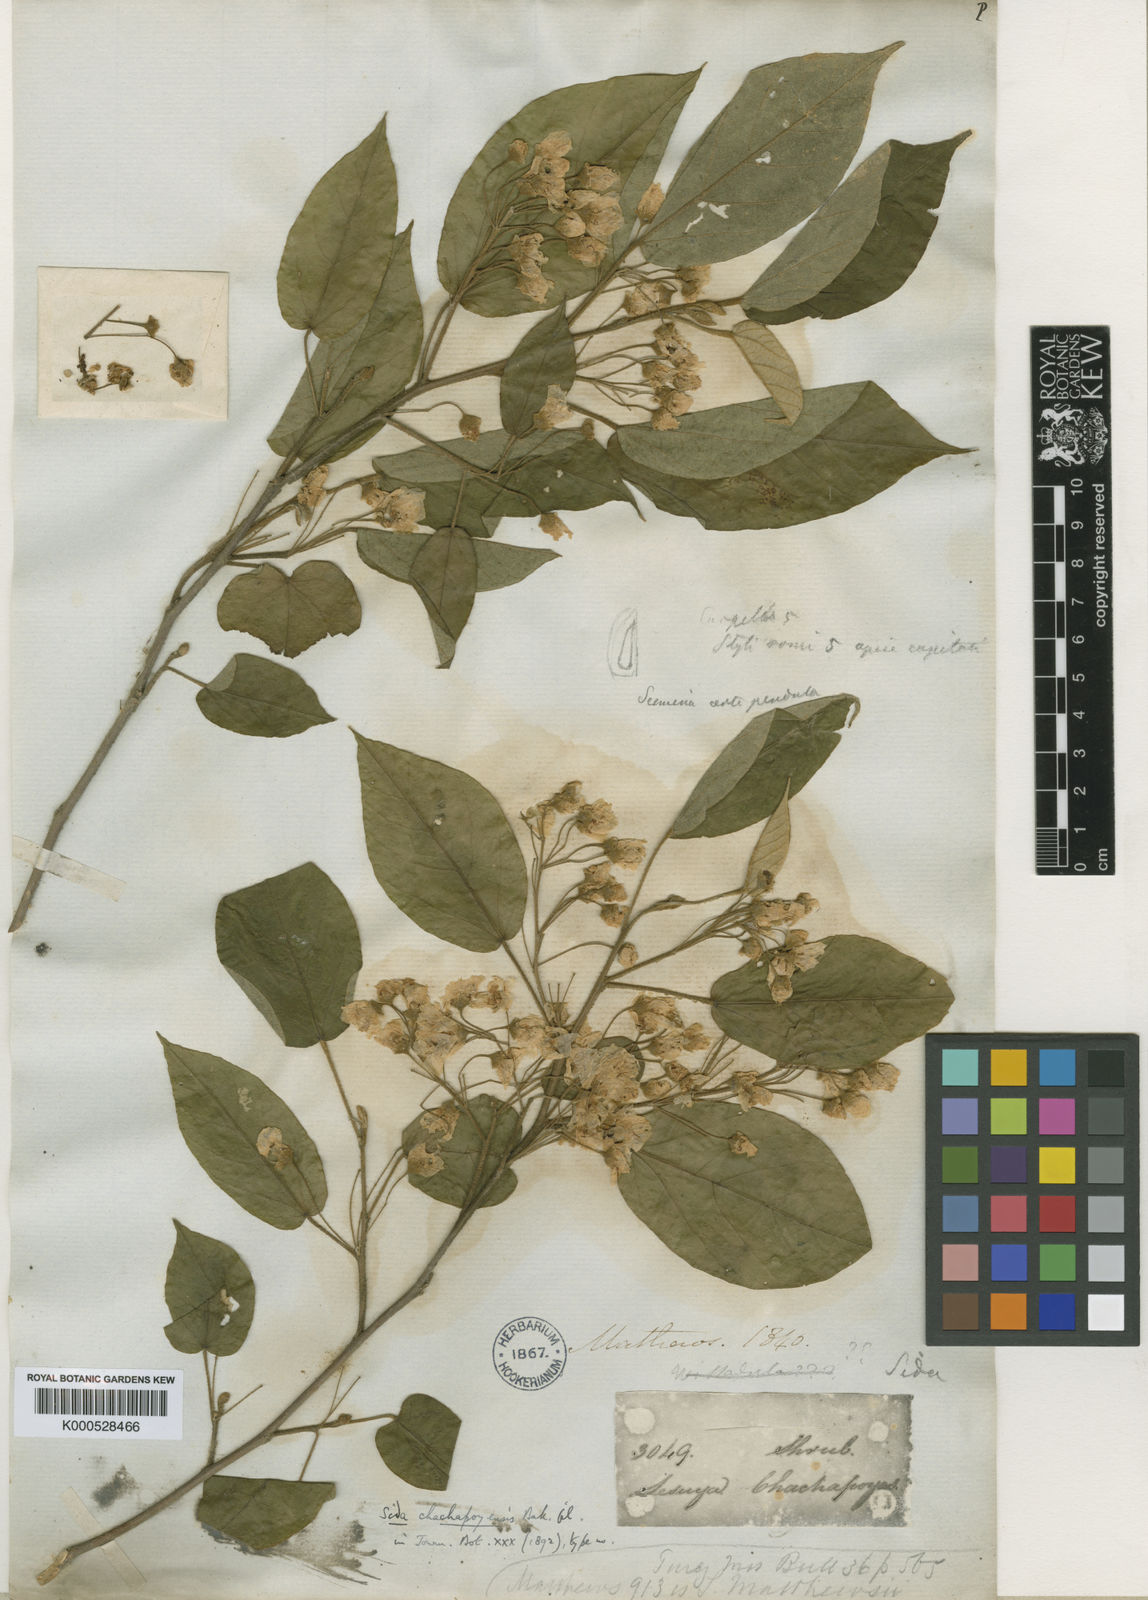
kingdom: Plantae
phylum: Tracheophyta
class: Magnoliopsida
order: Malvales
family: Malvaceae
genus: Tetrasida
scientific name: Tetrasida chachapoyensis
